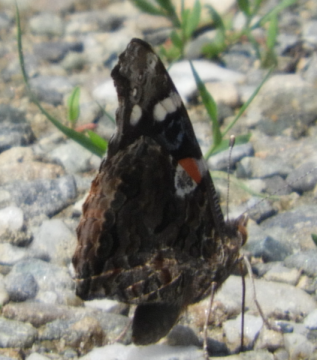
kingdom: Animalia
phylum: Arthropoda
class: Insecta
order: Lepidoptera
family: Nymphalidae
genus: Vanessa
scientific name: Vanessa atalanta
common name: Red Admiral
